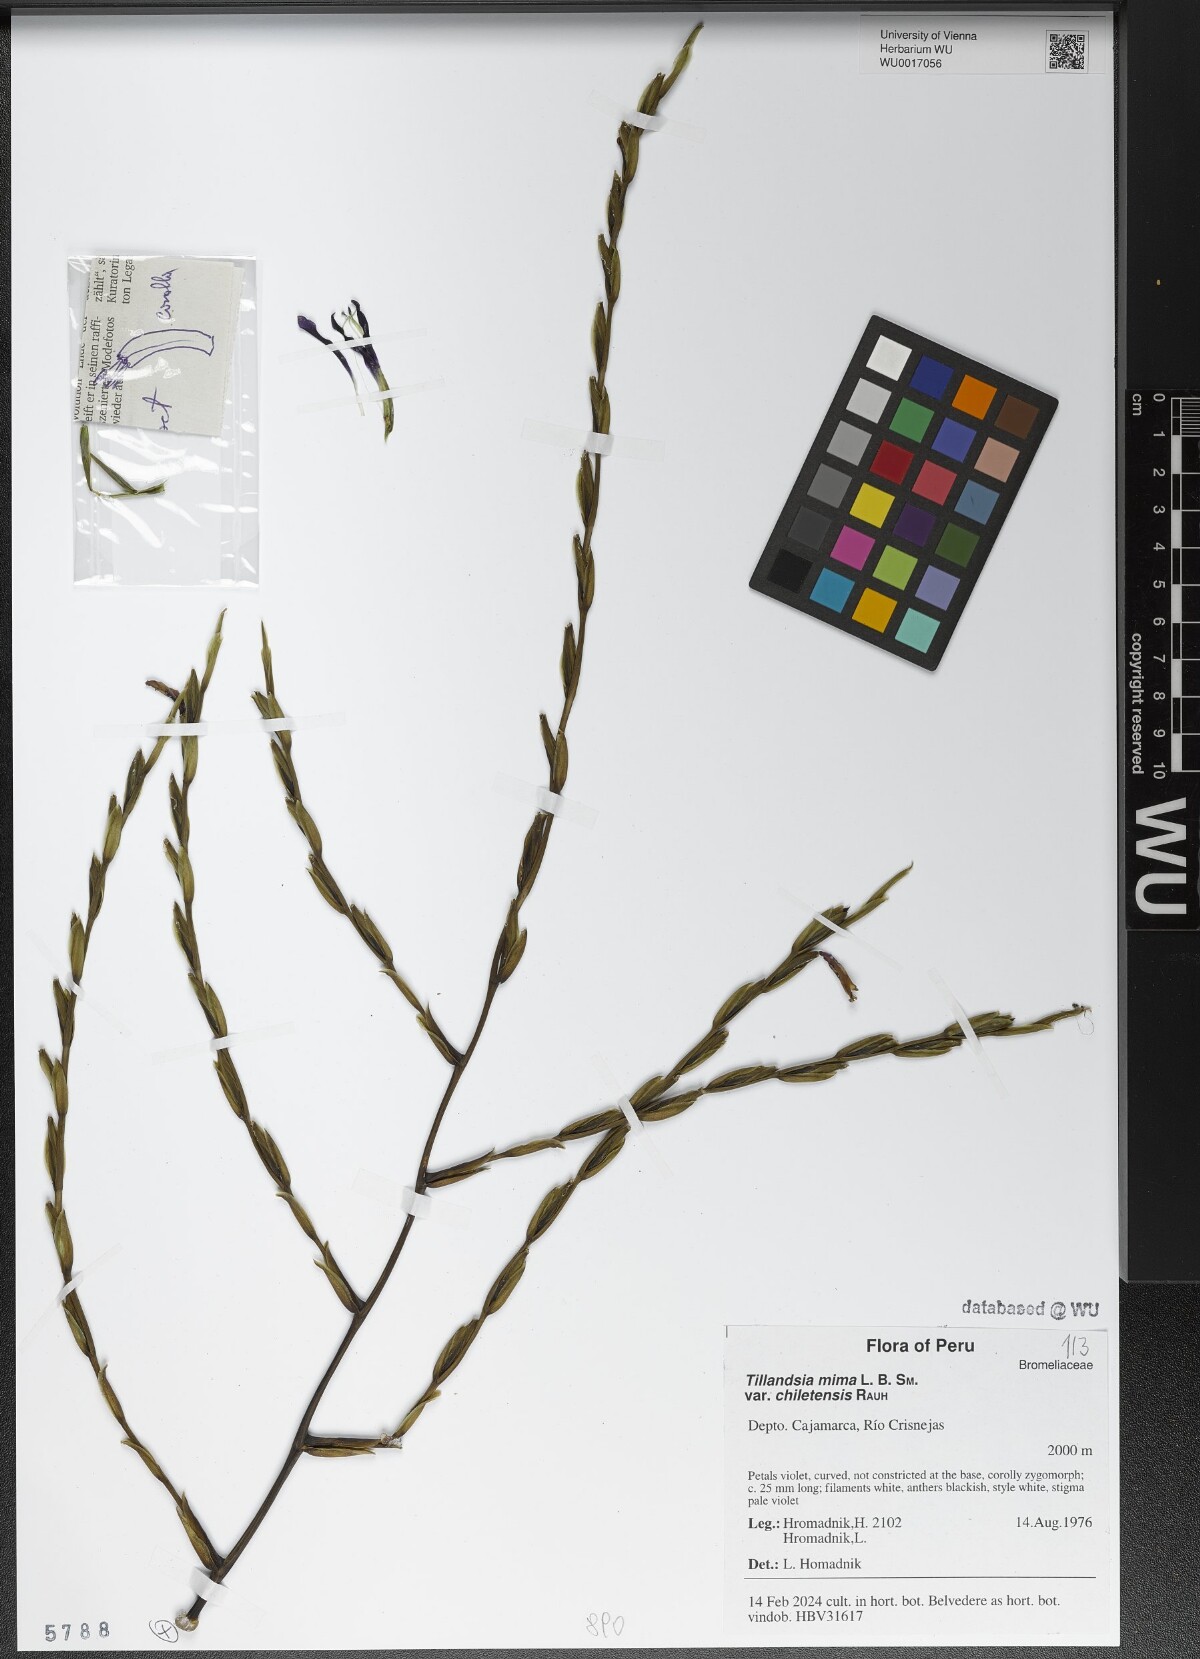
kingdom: Plantae
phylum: Tracheophyta
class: Liliopsida
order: Poales
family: Bromeliaceae
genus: Tillandsia
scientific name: Tillandsia mima
